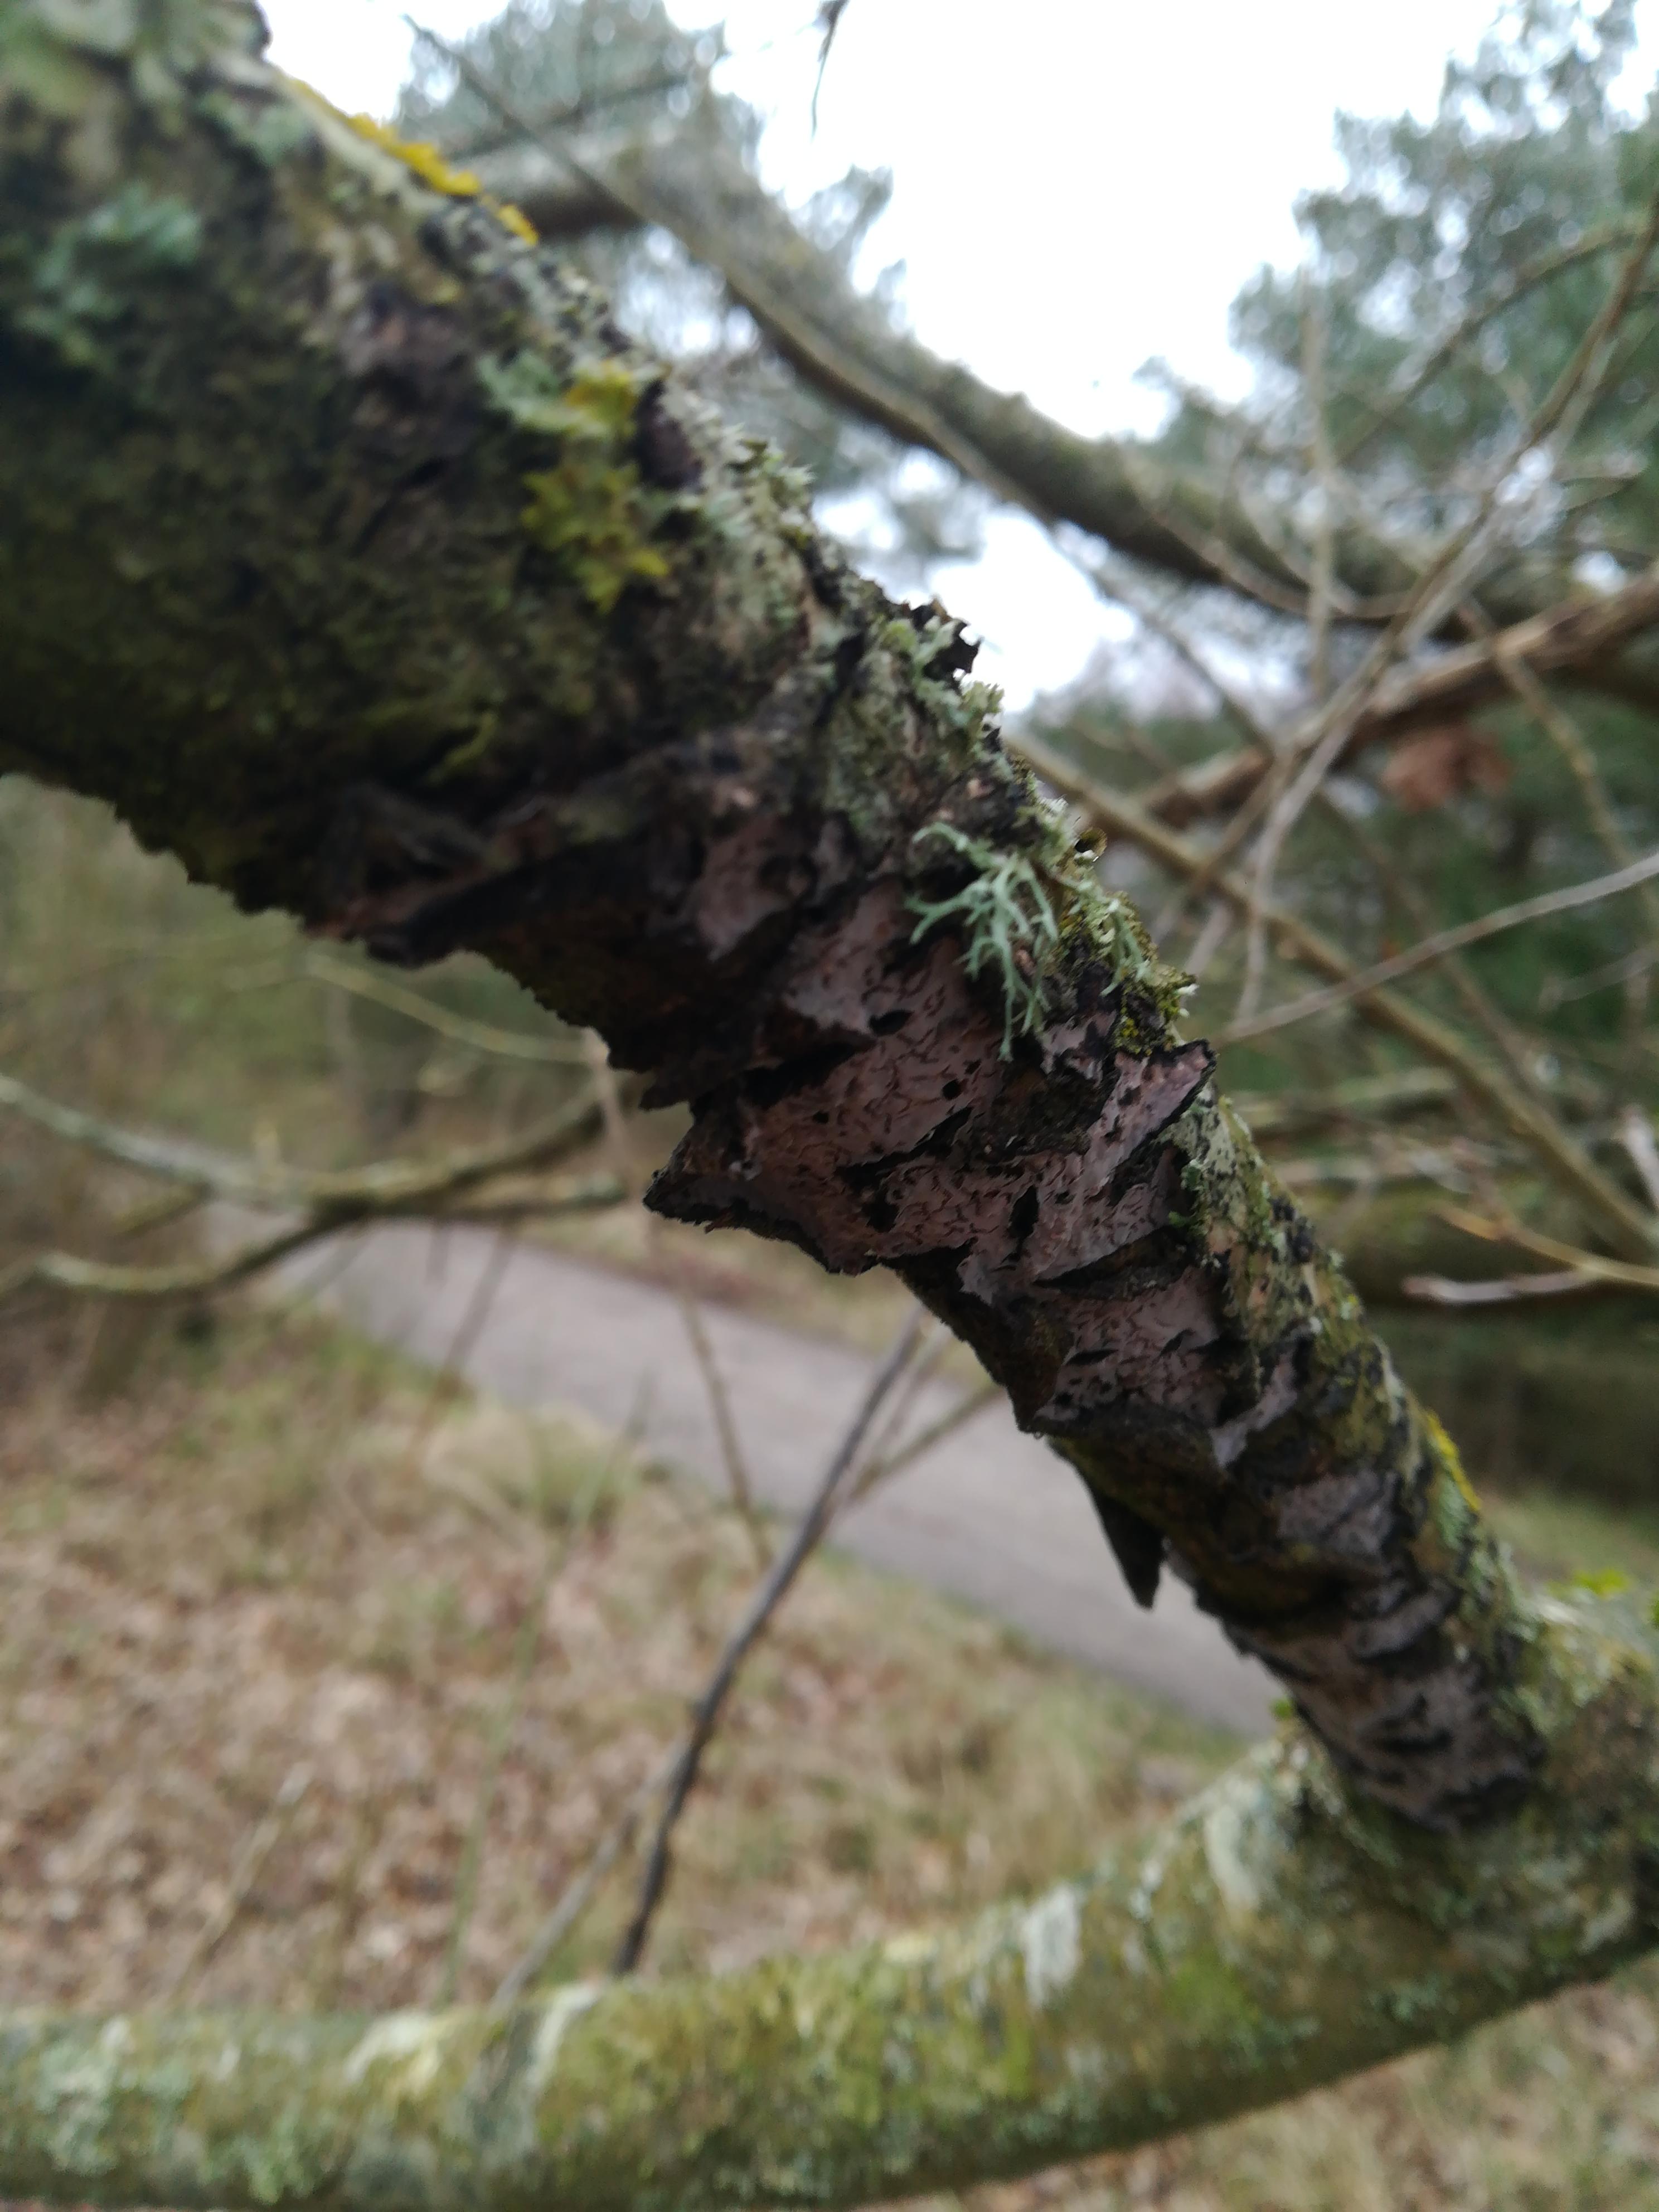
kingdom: Fungi
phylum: Basidiomycota
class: Agaricomycetes
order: Russulales
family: Peniophoraceae
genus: Peniophora
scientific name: Peniophora quercina
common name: ege-voksskind
